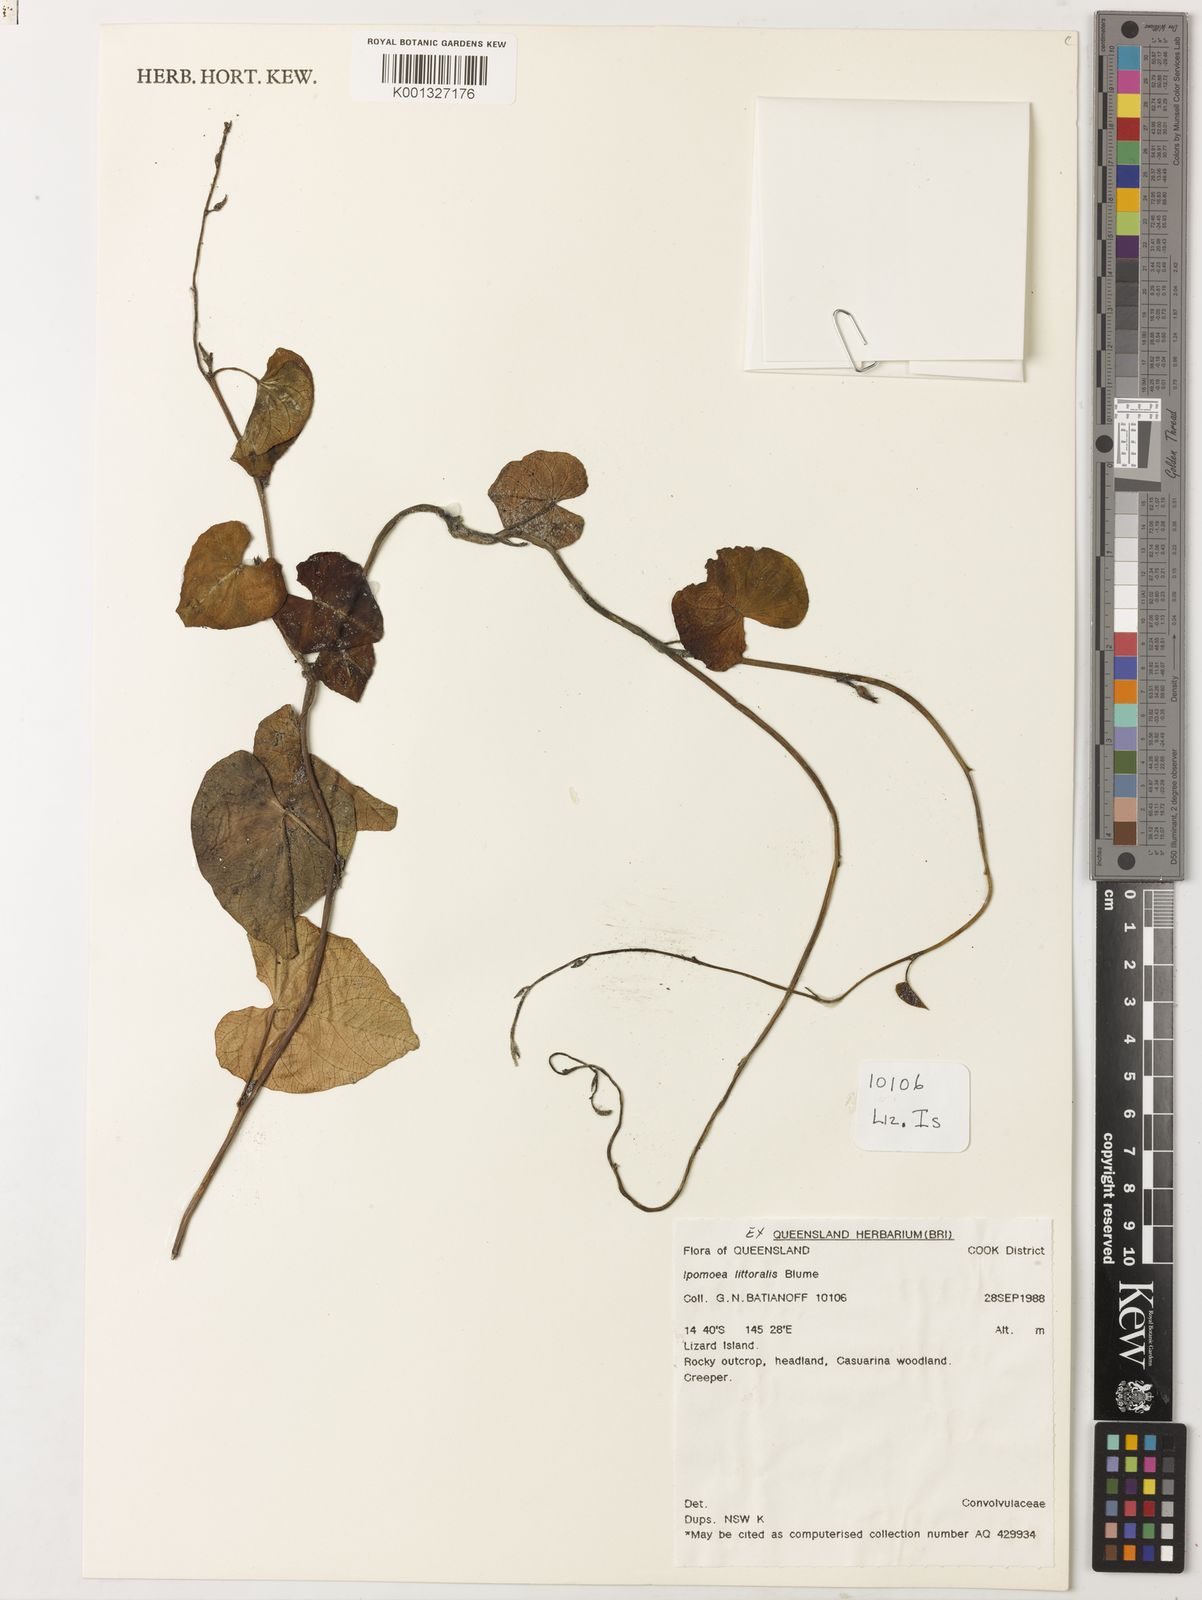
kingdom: Plantae
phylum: Tracheophyta
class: Magnoliopsida
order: Solanales
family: Convolvulaceae
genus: Ipomoea
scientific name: Ipomoea littoralis
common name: Coastal morning glory
